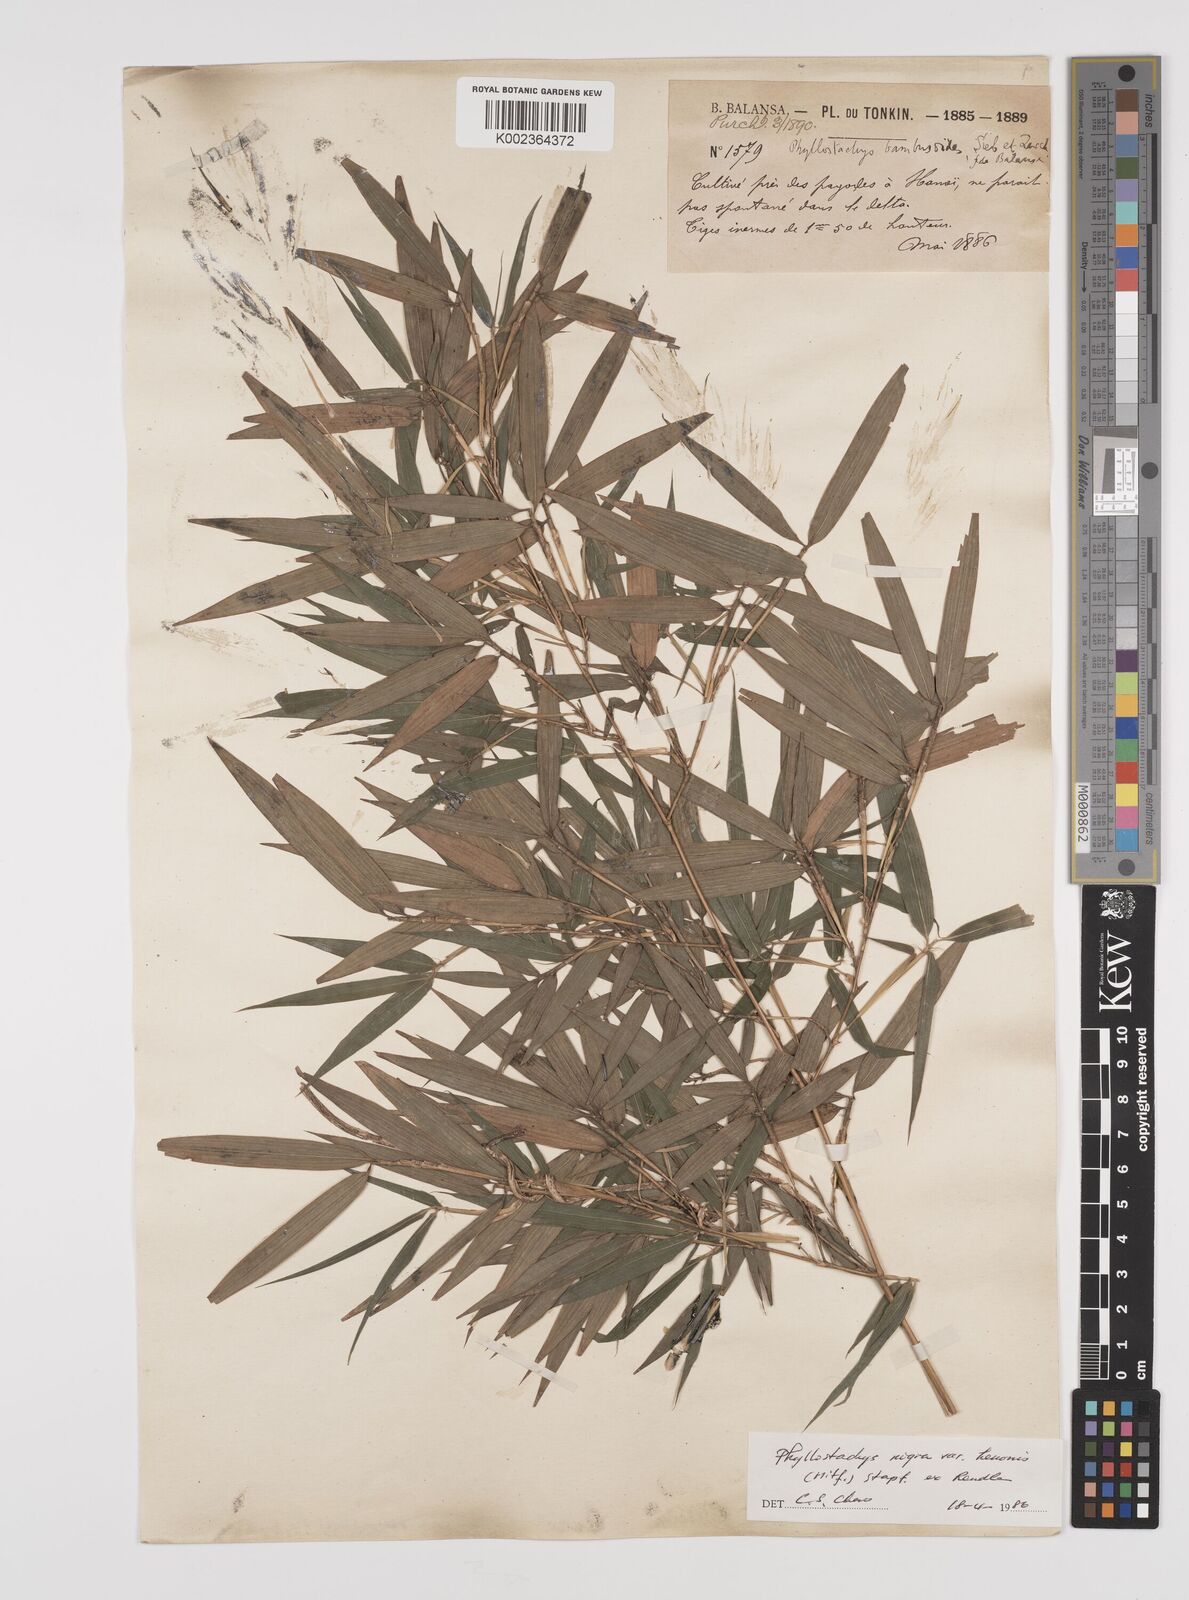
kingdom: Plantae
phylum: Tracheophyta
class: Liliopsida
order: Poales
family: Poaceae
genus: Phyllostachys
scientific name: Phyllostachys reticulata
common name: Bamboo
